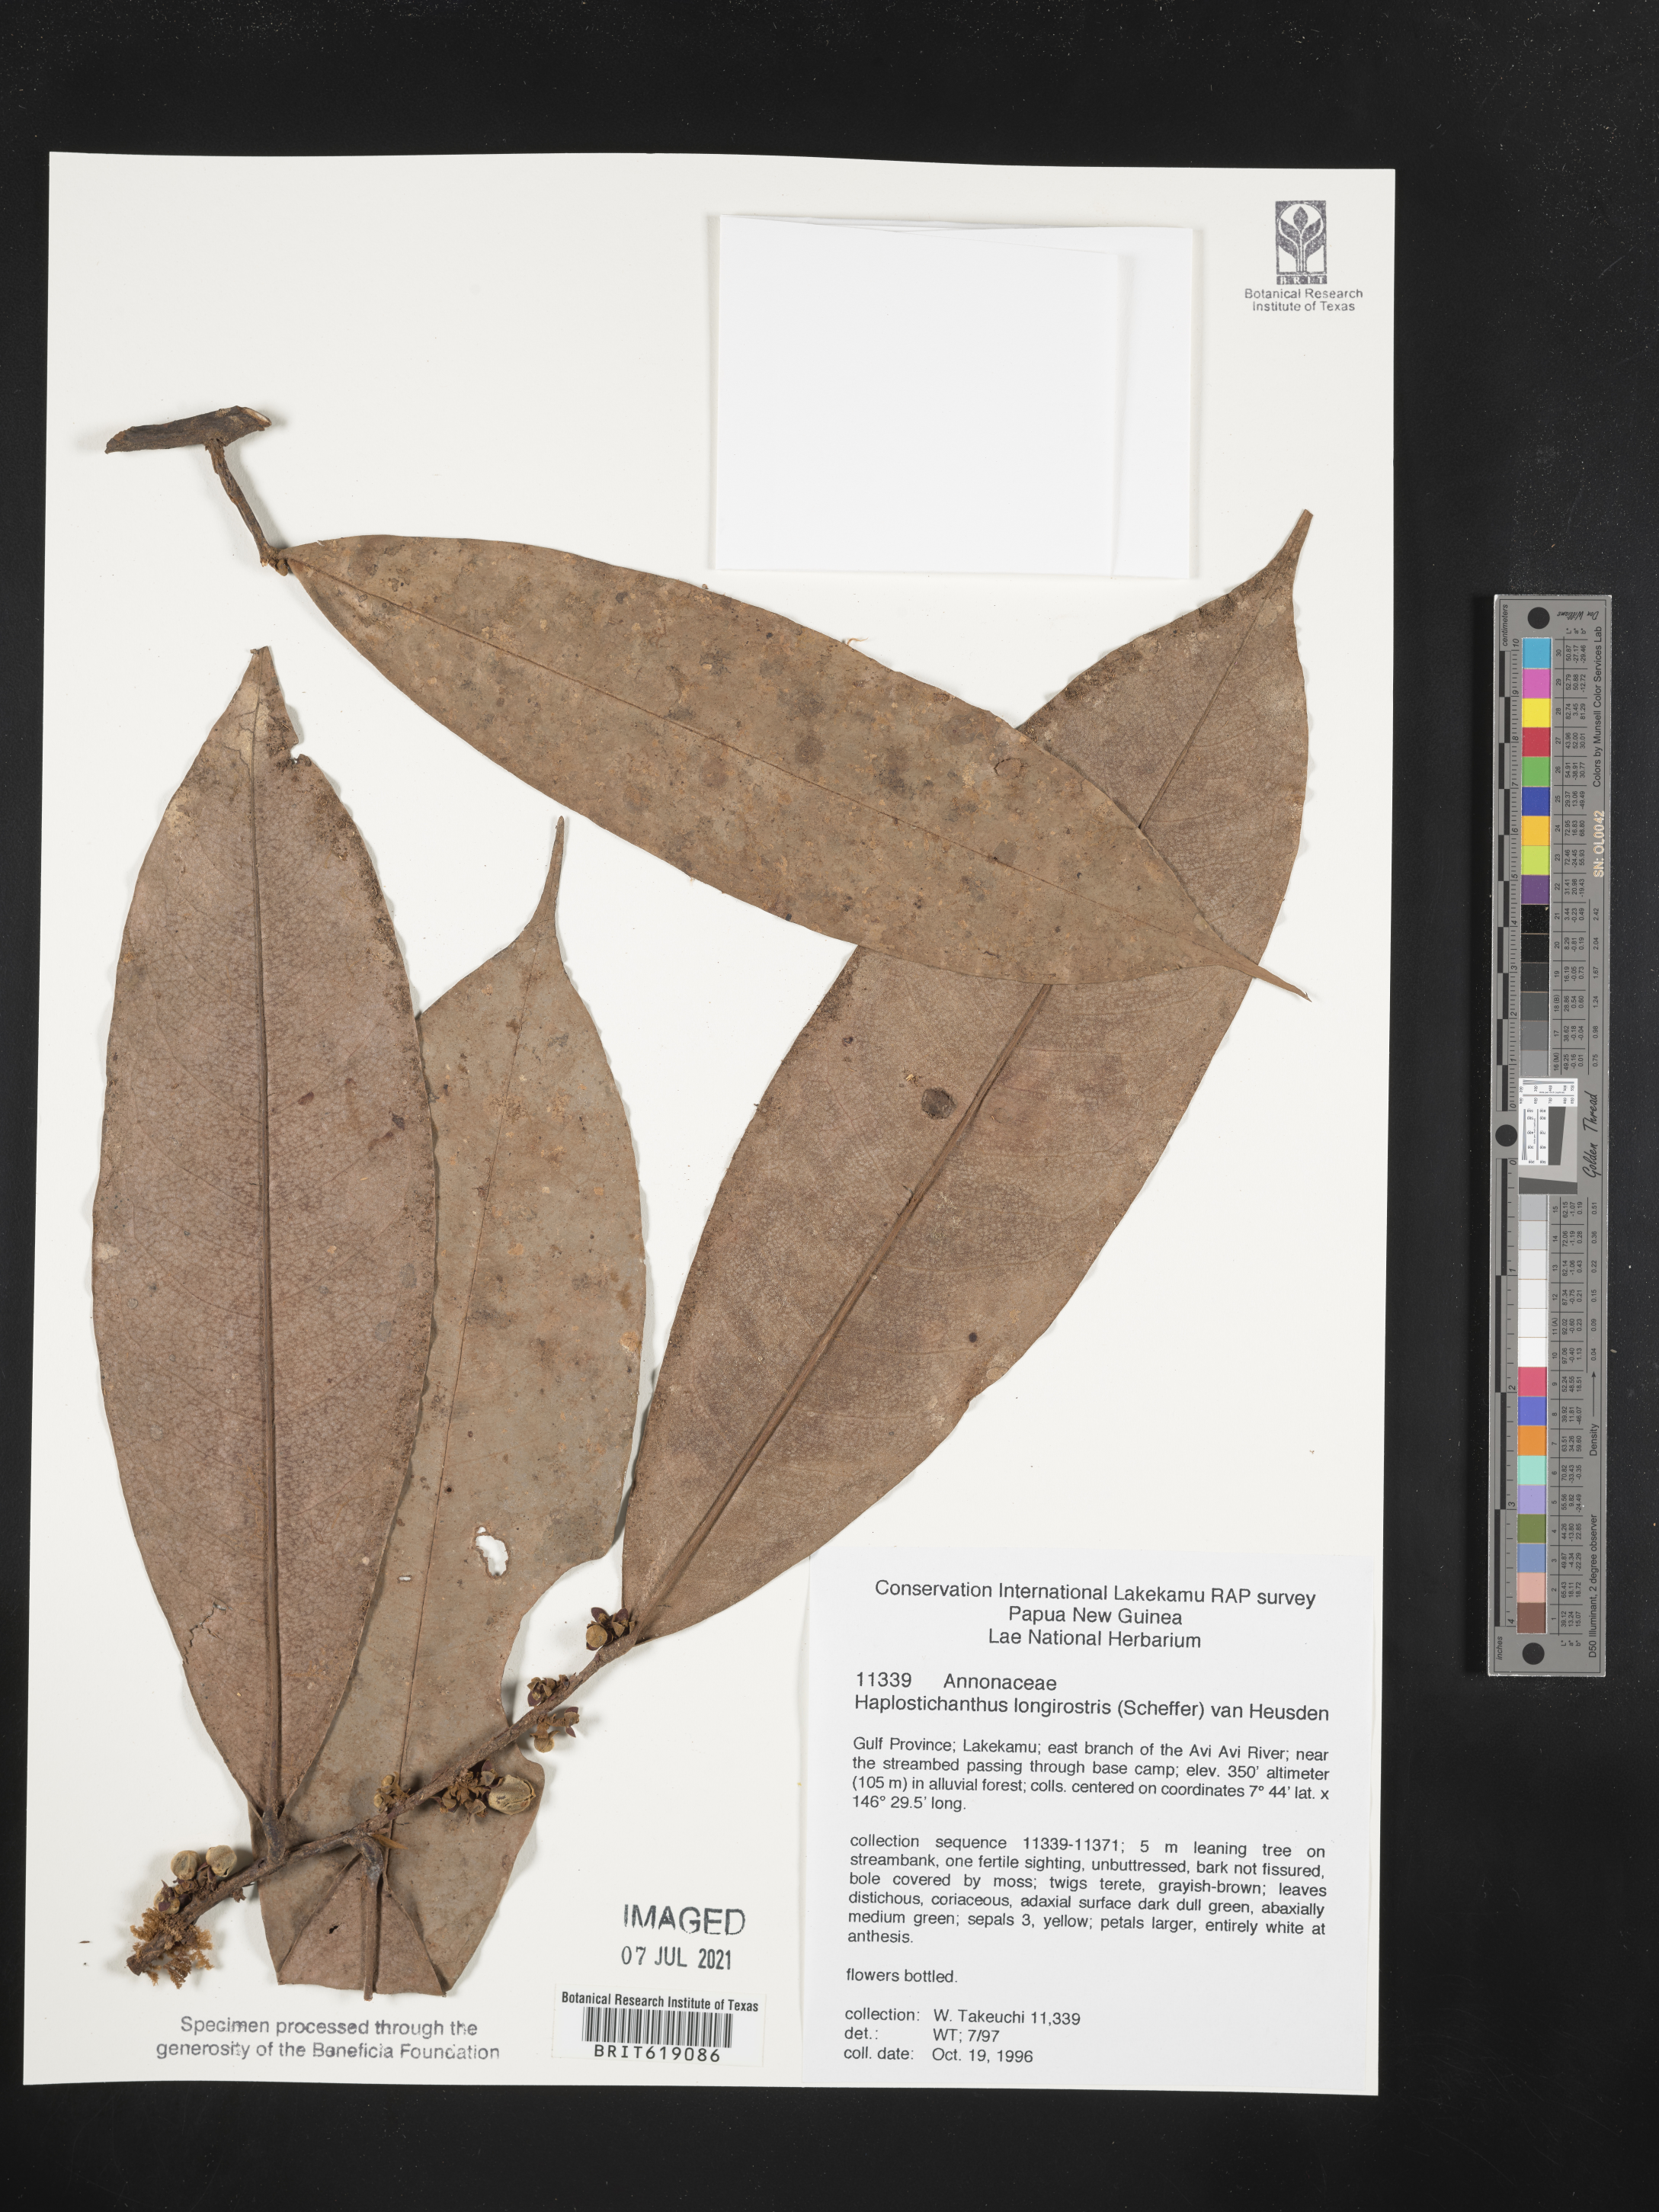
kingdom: Plantae
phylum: Tracheophyta
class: Magnoliopsida
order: Magnoliales
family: Annonaceae
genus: Haplostichanthus
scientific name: Haplostichanthus longirostris
